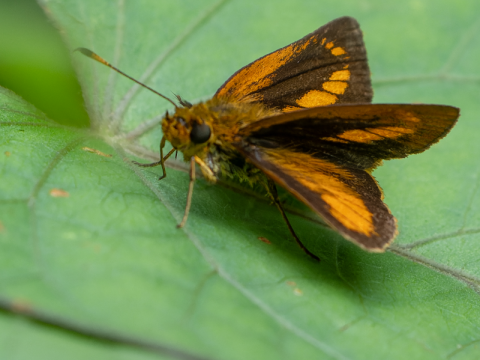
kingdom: Animalia
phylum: Arthropoda
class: Insecta
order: Lepidoptera
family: Hesperiidae
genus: Corticea
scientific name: Corticea mendica
